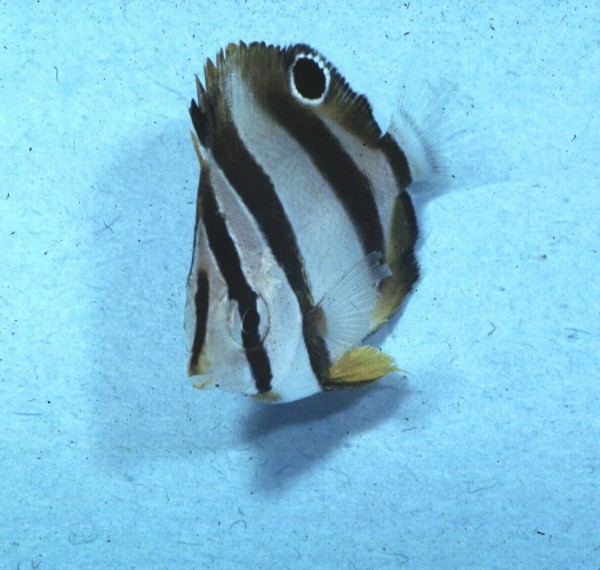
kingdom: Animalia
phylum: Chordata
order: Perciformes
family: Chaetodontidae
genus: Chaetodon
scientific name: Chaetodon marleyi
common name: Doubledash butterflyfish
